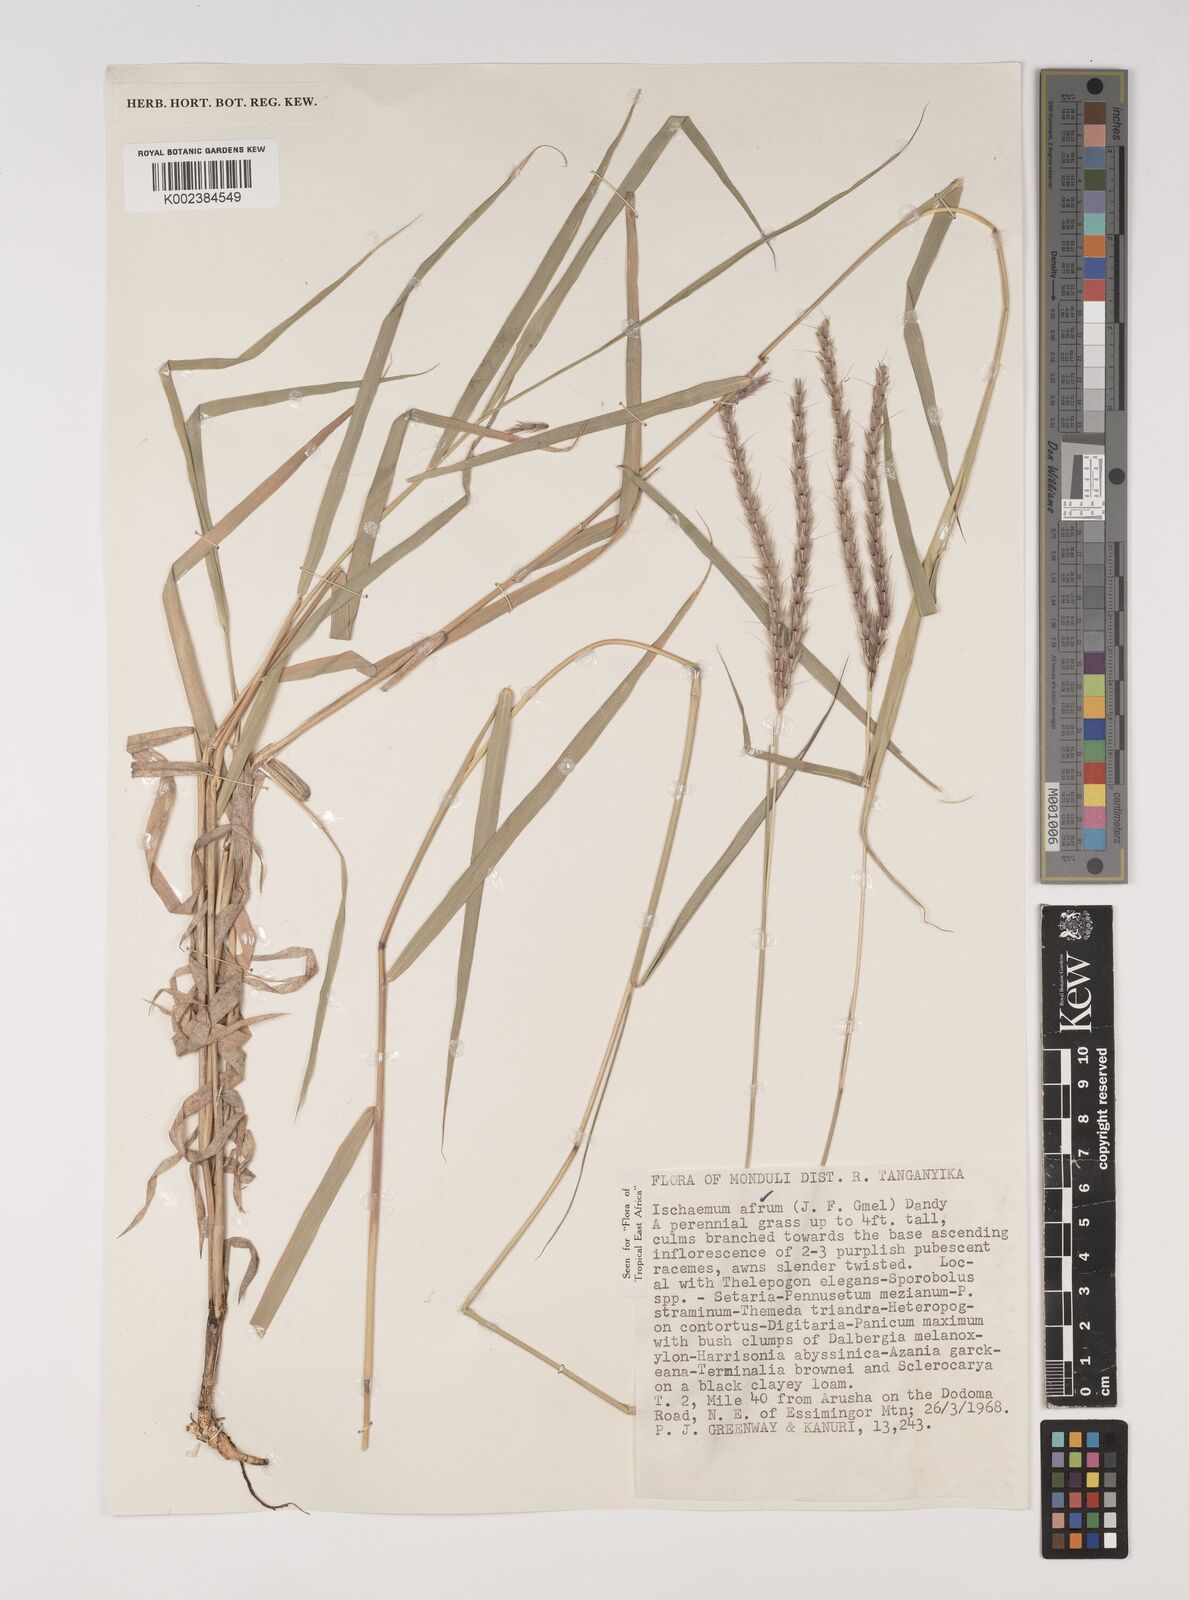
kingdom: Plantae
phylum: Tracheophyta
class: Liliopsida
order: Poales
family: Poaceae
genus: Ischaemum
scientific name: Ischaemum afrum
